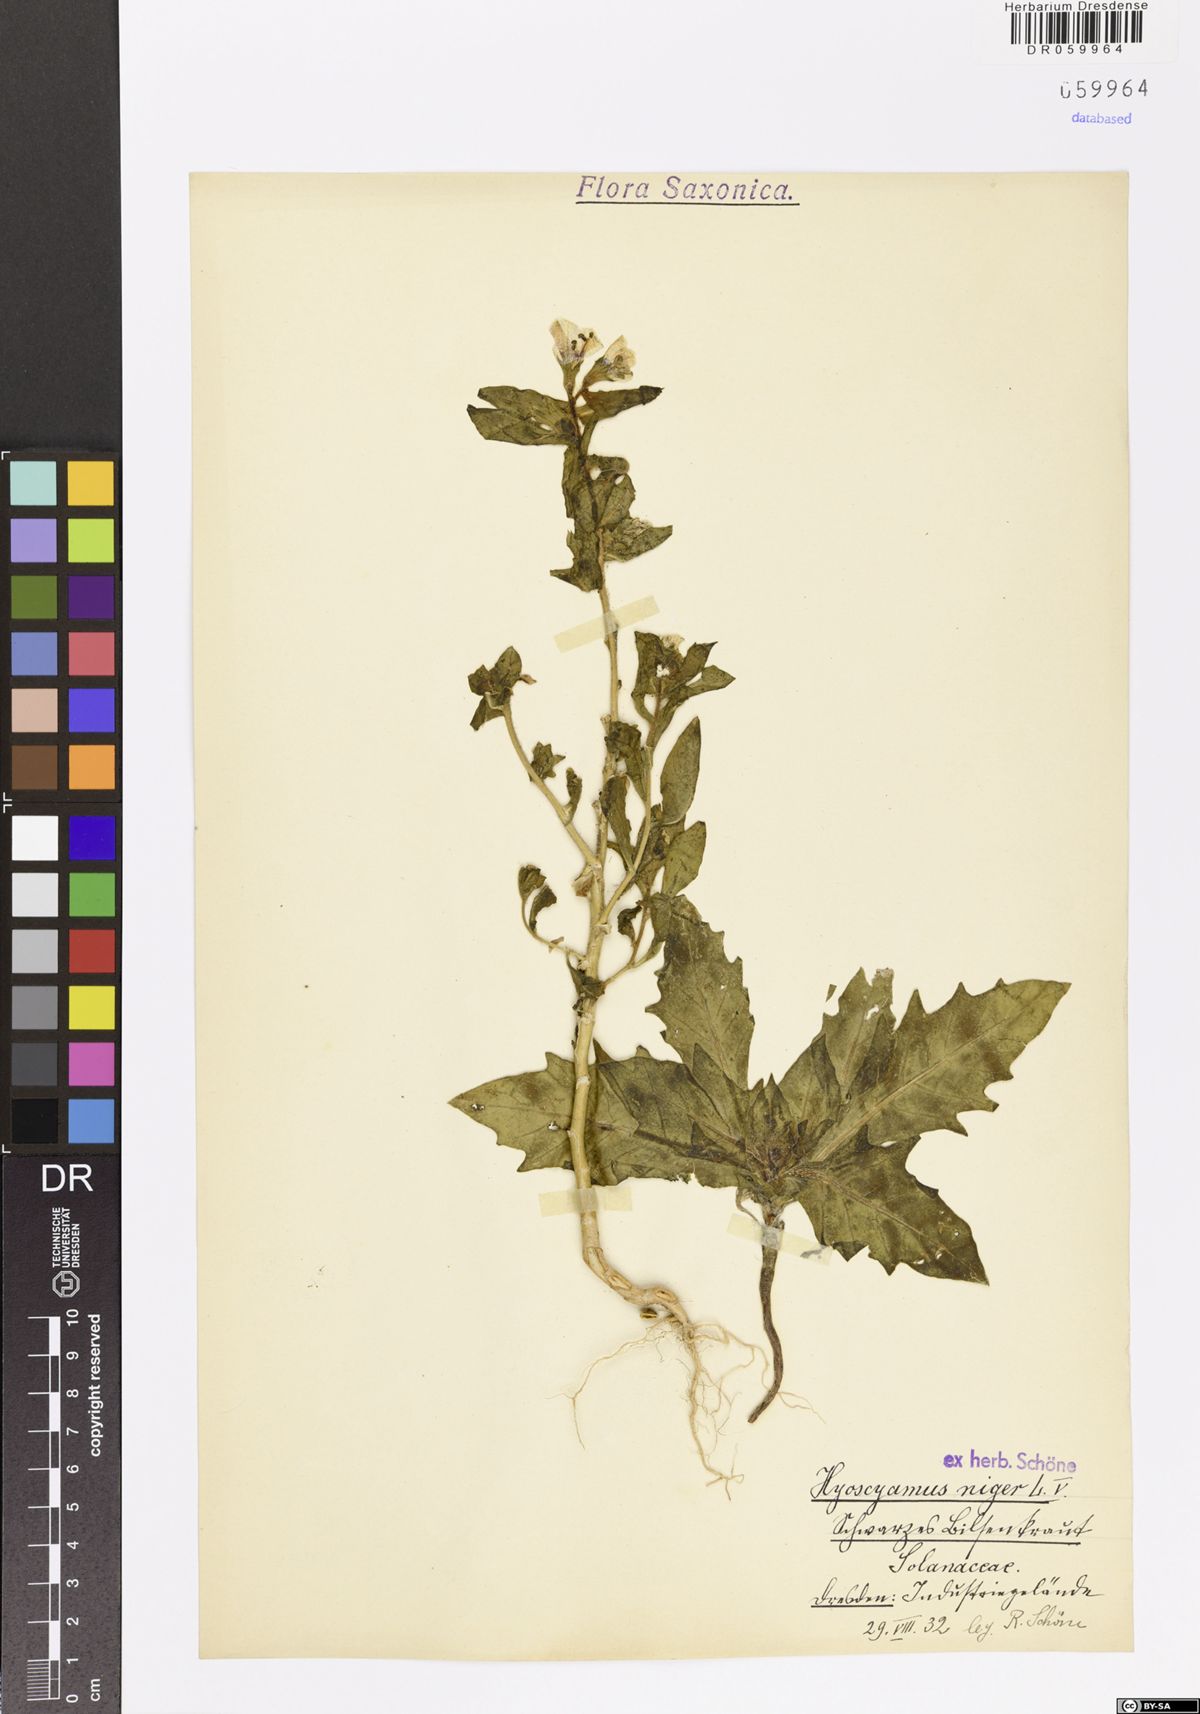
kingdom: Plantae
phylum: Tracheophyta
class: Magnoliopsida
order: Solanales
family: Solanaceae
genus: Hyoscyamus
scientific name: Hyoscyamus niger
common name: Henbane
